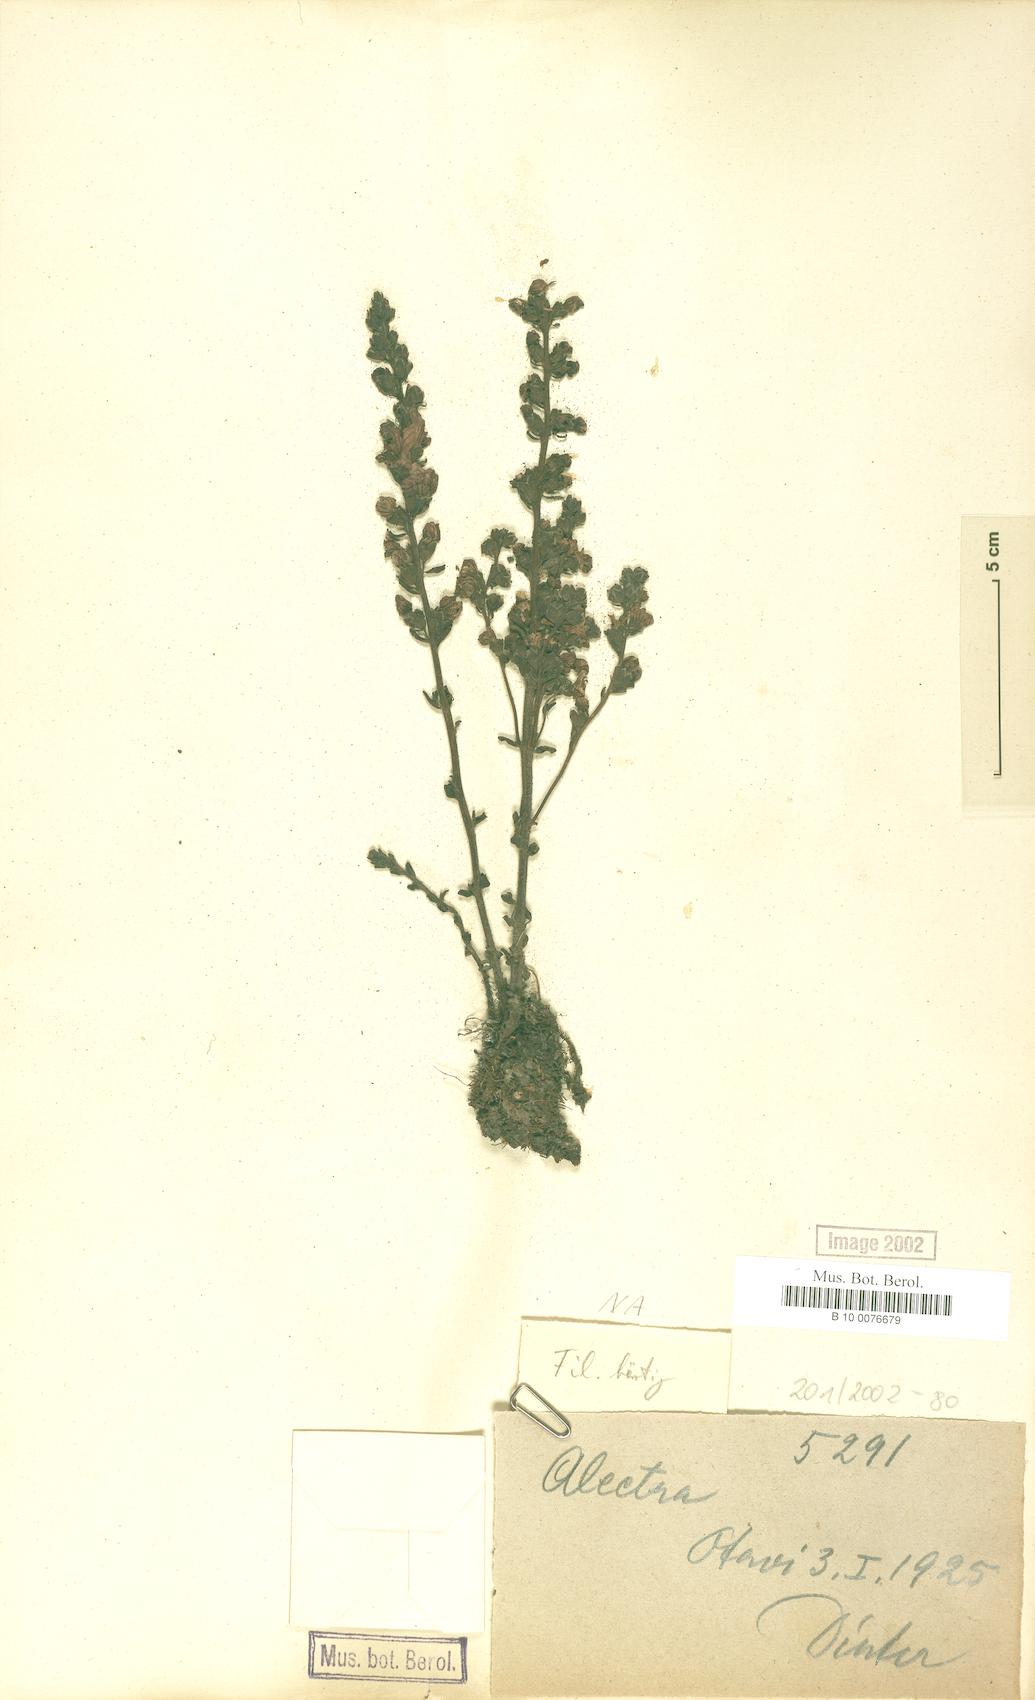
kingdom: Plantae
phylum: Tracheophyta
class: Magnoliopsida
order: Lamiales
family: Orobanchaceae
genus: Alectra
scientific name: Alectra
